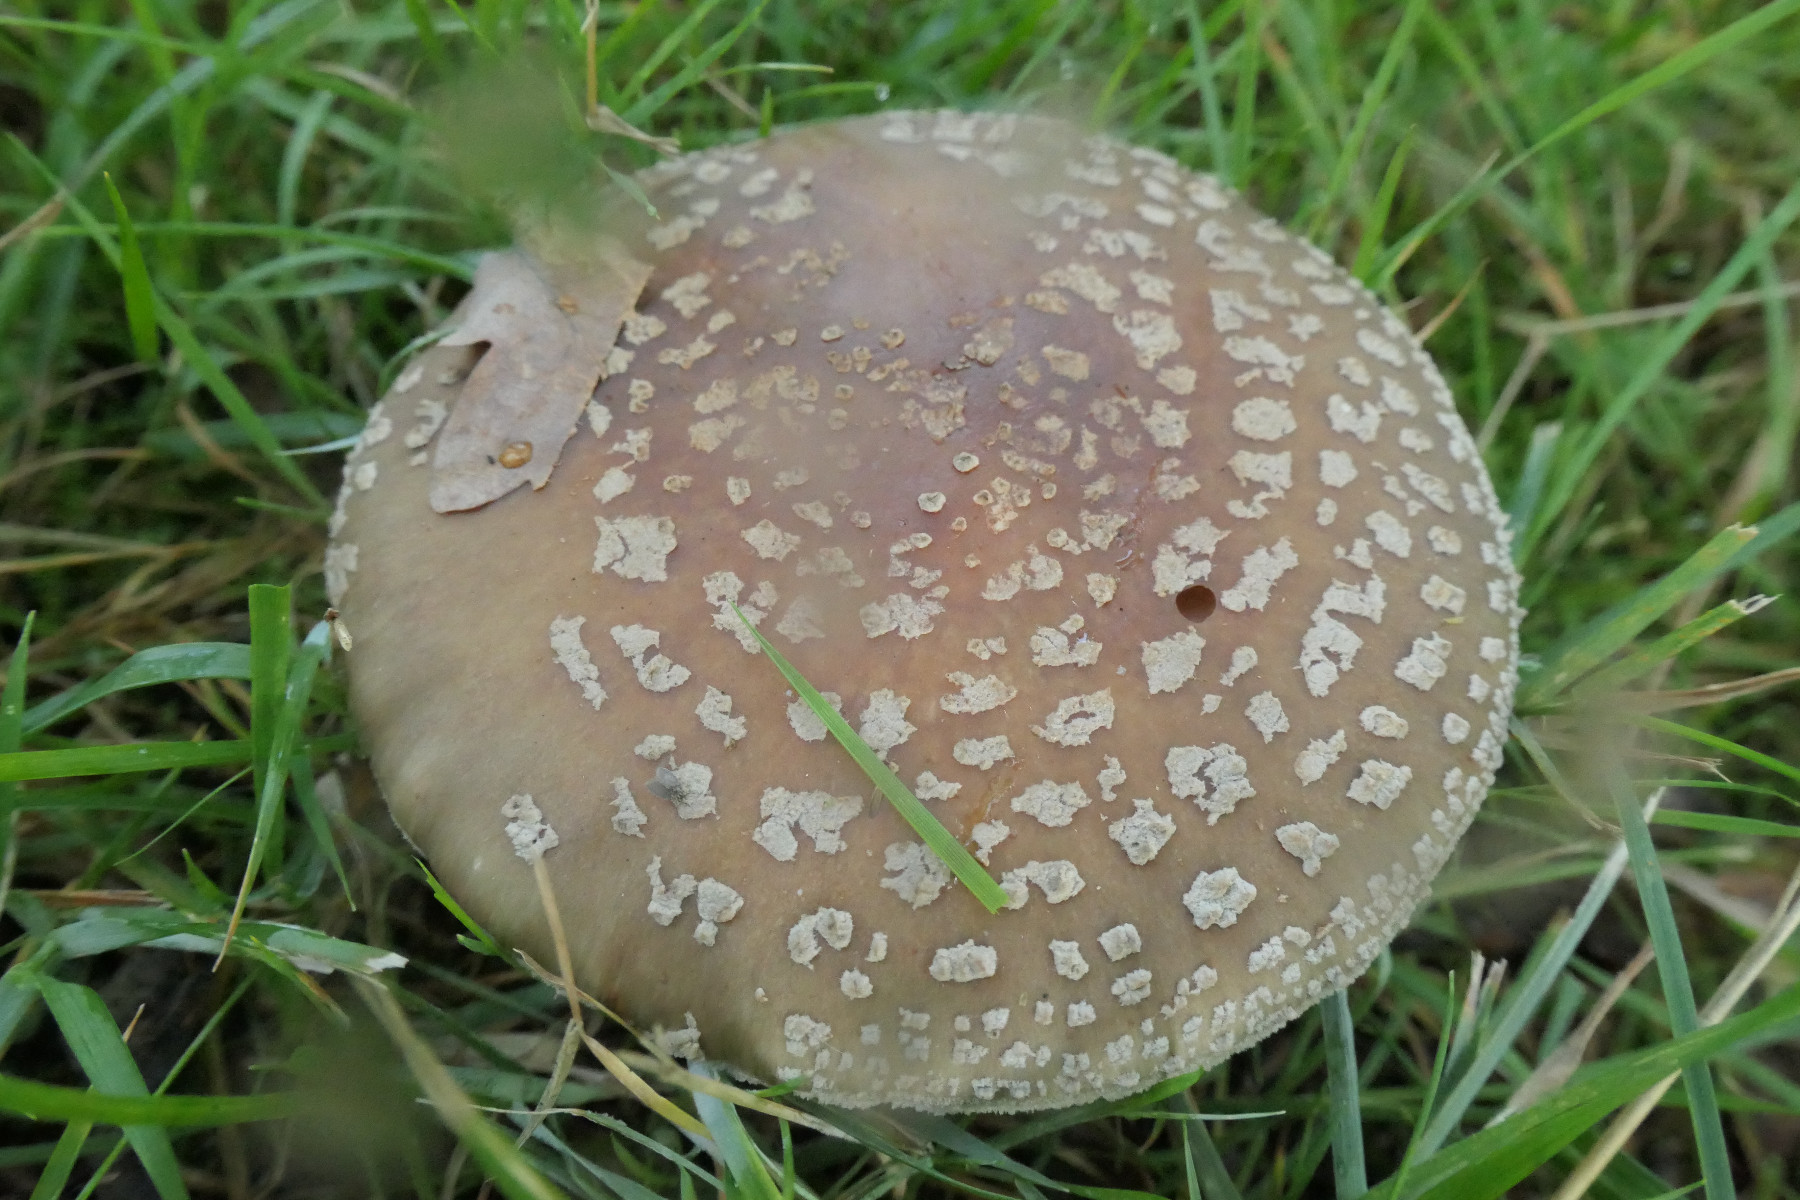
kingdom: Fungi
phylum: Basidiomycota
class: Agaricomycetes
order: Agaricales
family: Amanitaceae
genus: Amanita
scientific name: Amanita rubescens
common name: rødmende fluesvamp
